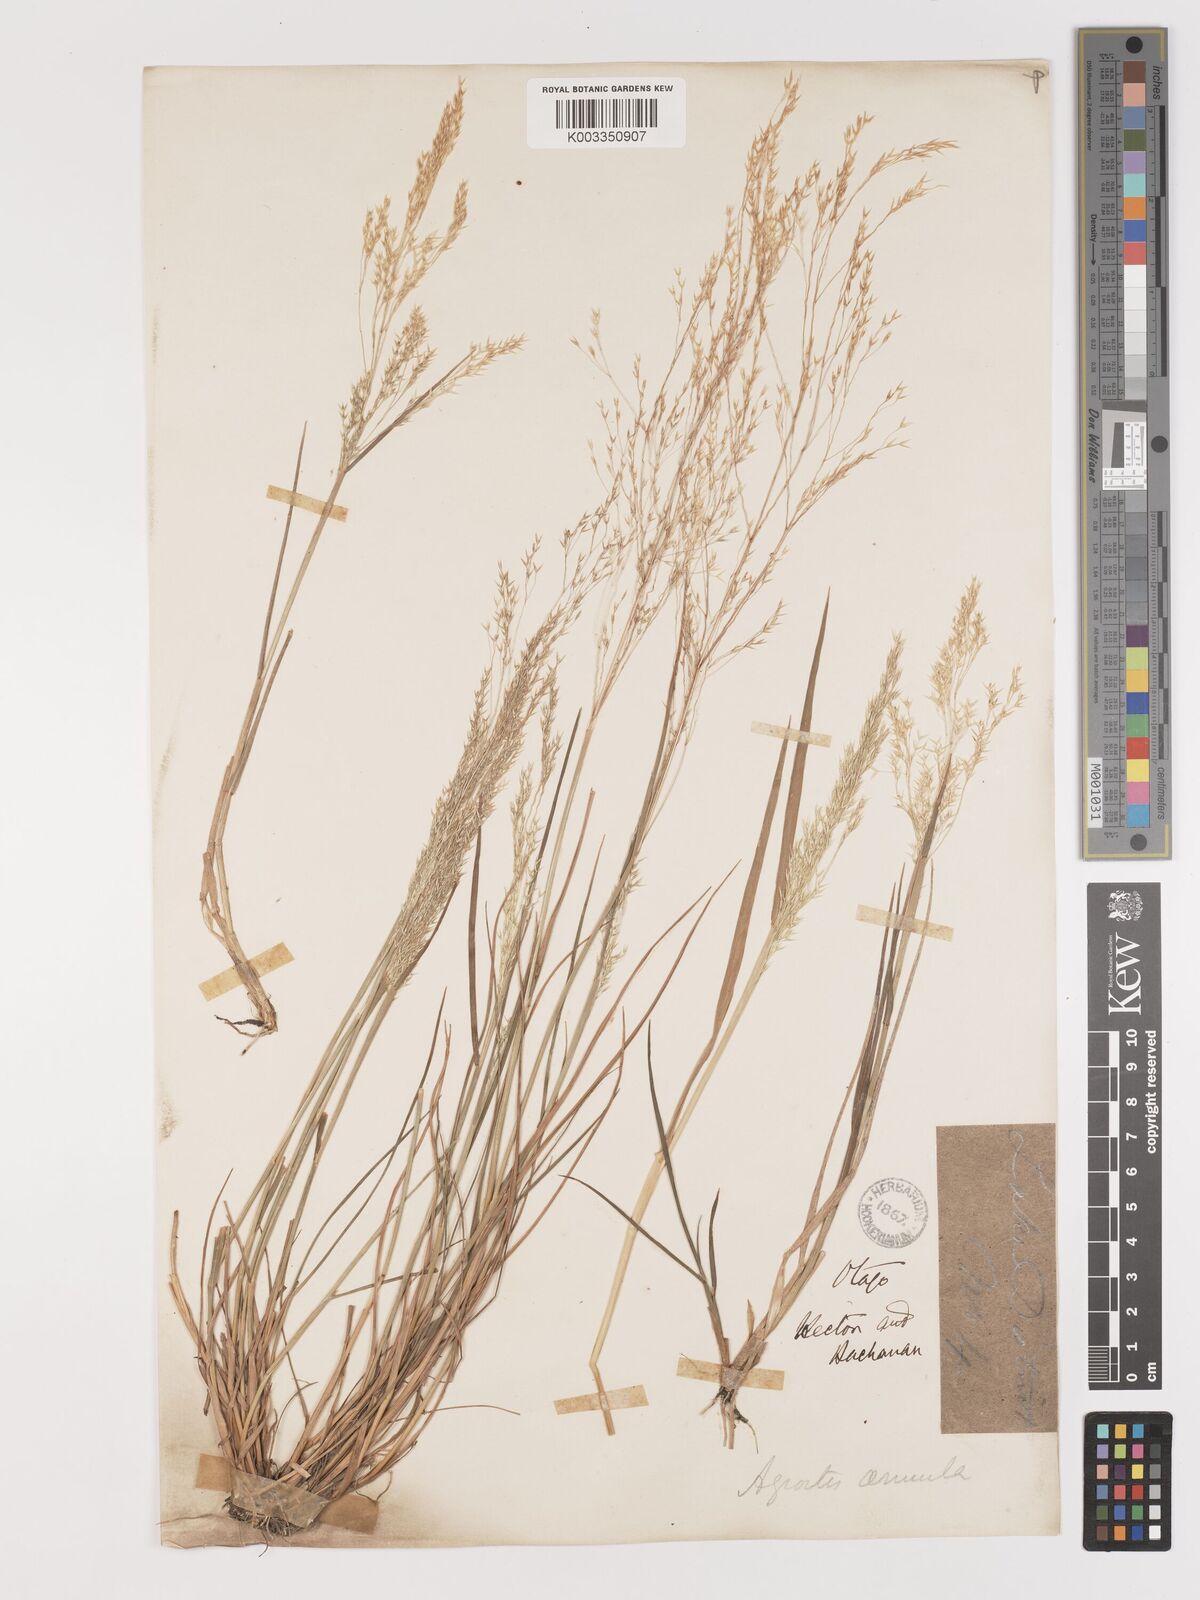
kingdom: Plantae
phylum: Tracheophyta
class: Liliopsida
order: Poales
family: Poaceae
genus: Lachnagrostis
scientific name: Lachnagrostis filiformis
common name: Bentgrass
